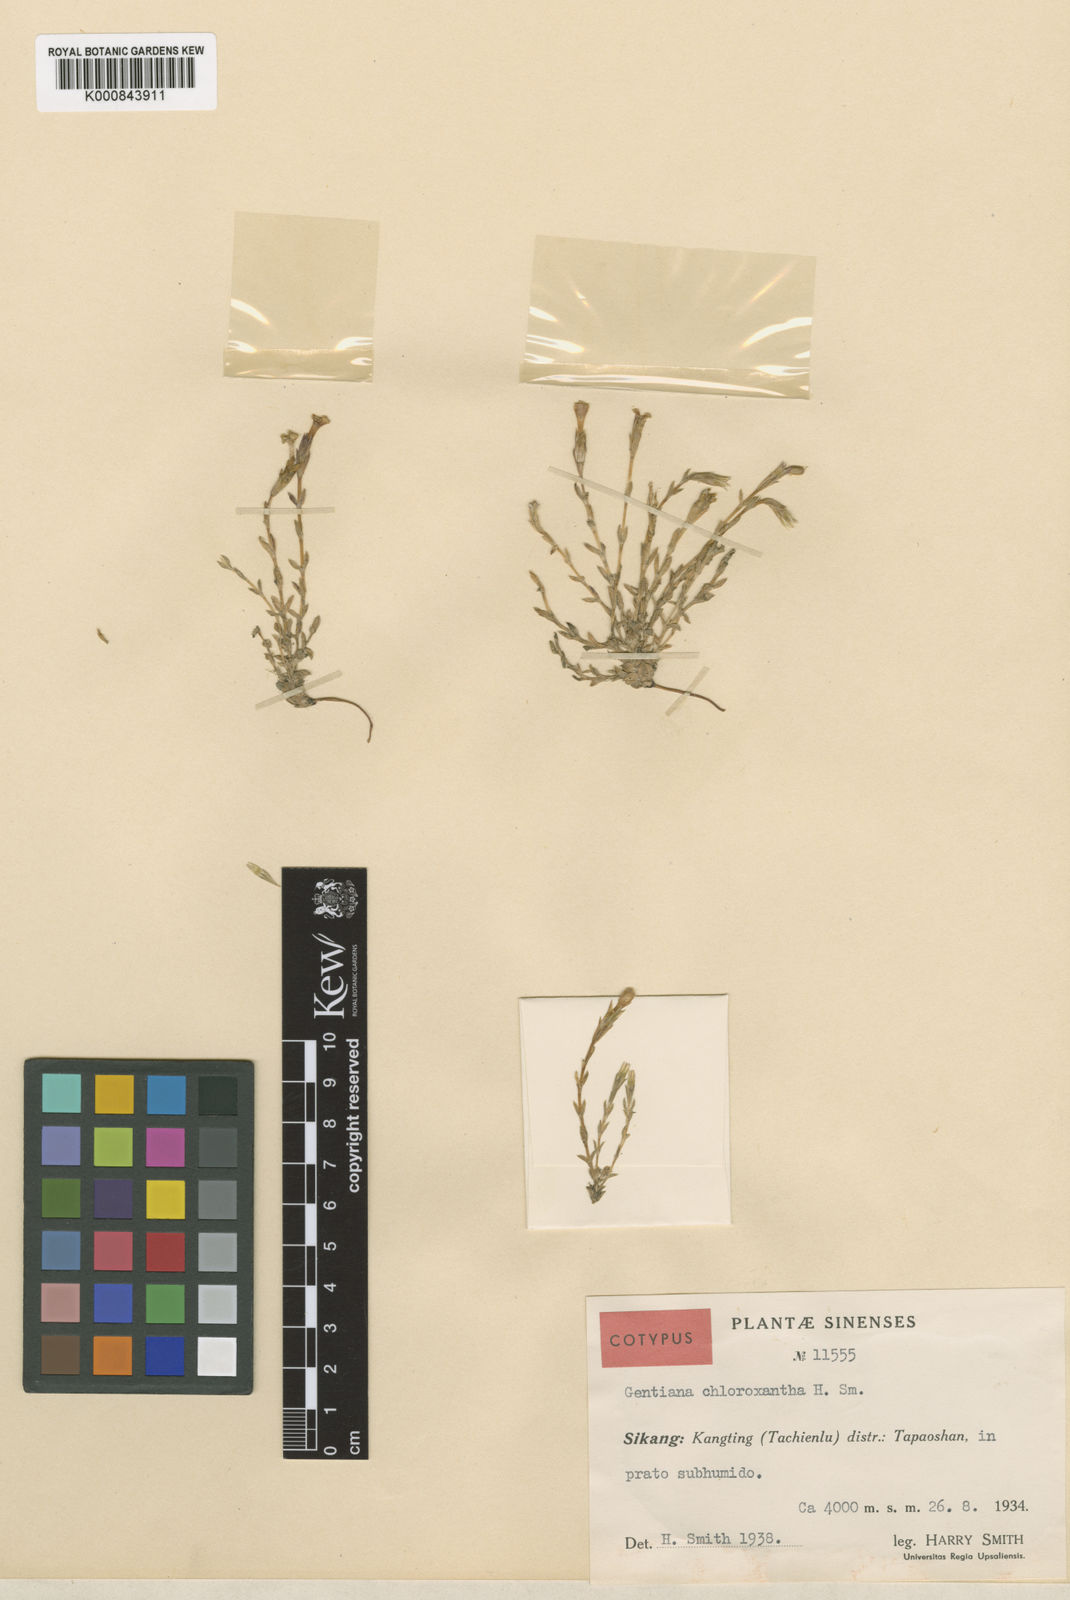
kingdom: Plantae
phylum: Tracheophyta
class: Magnoliopsida
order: Gentianales
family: Gentianaceae
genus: Gentiana
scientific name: Gentiana prattii
